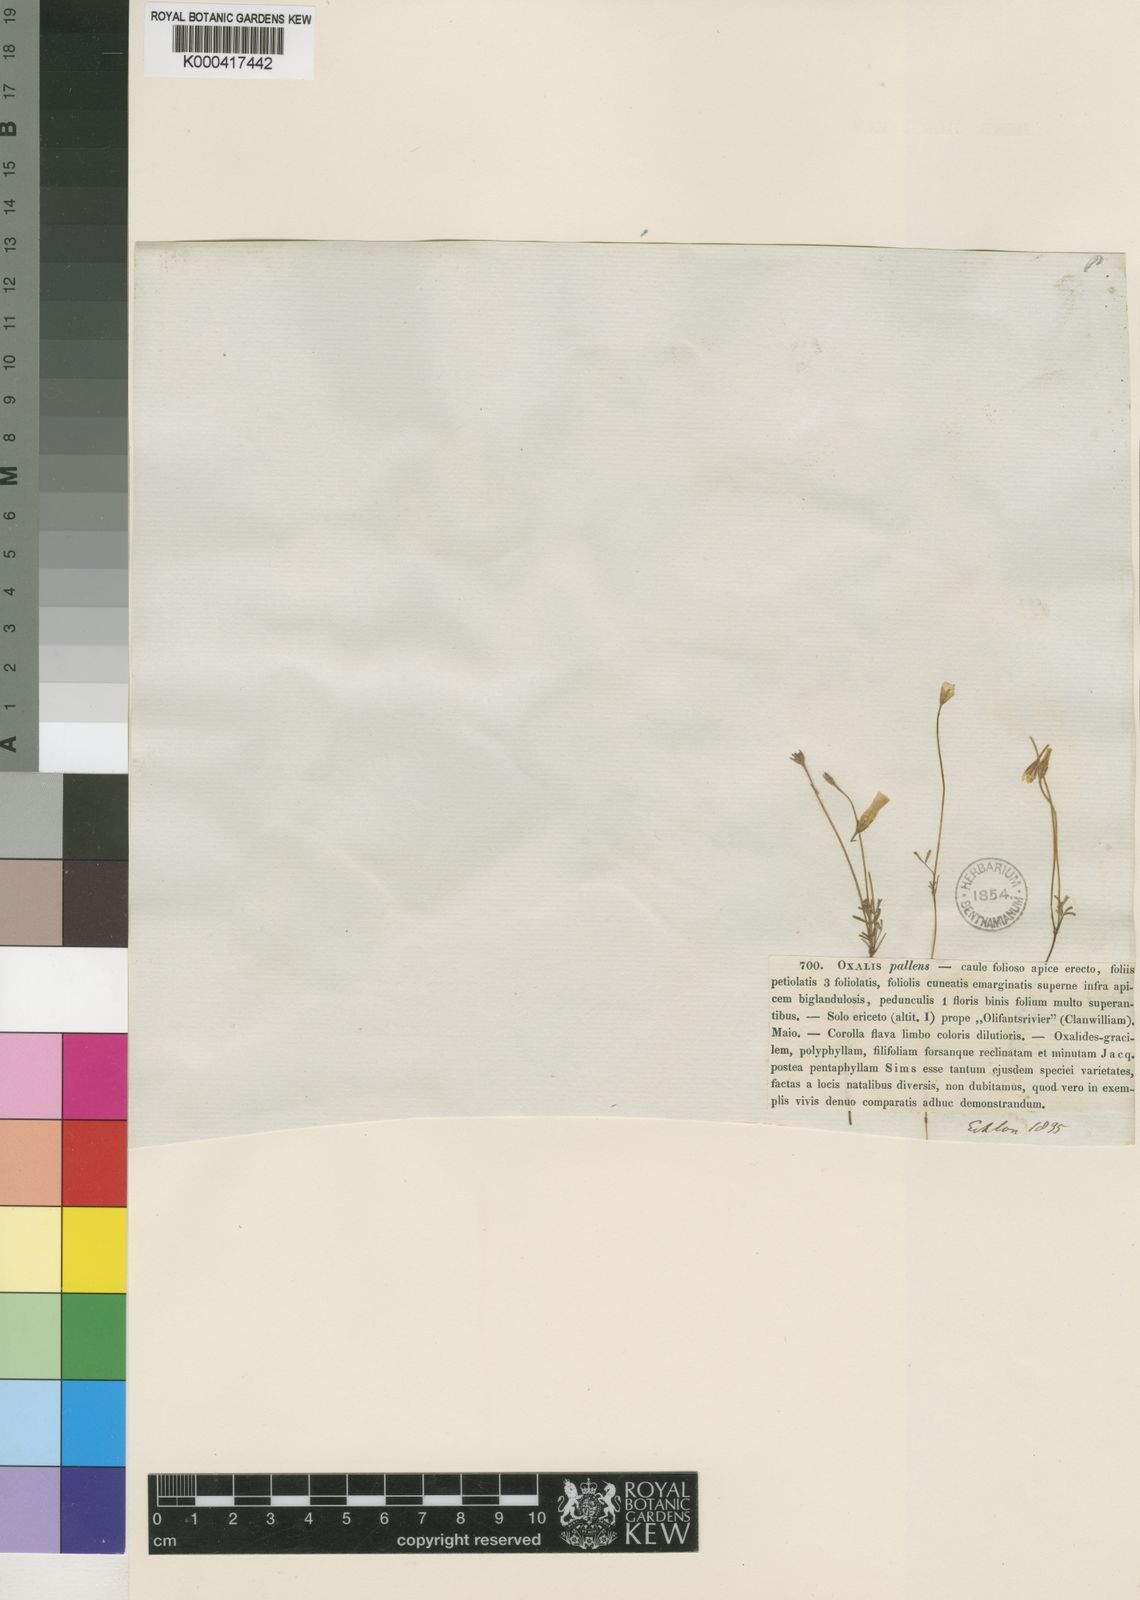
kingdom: Plantae
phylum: Tracheophyta
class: Magnoliopsida
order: Oxalidales
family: Oxalidaceae
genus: Oxalis
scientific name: Oxalis pallens
